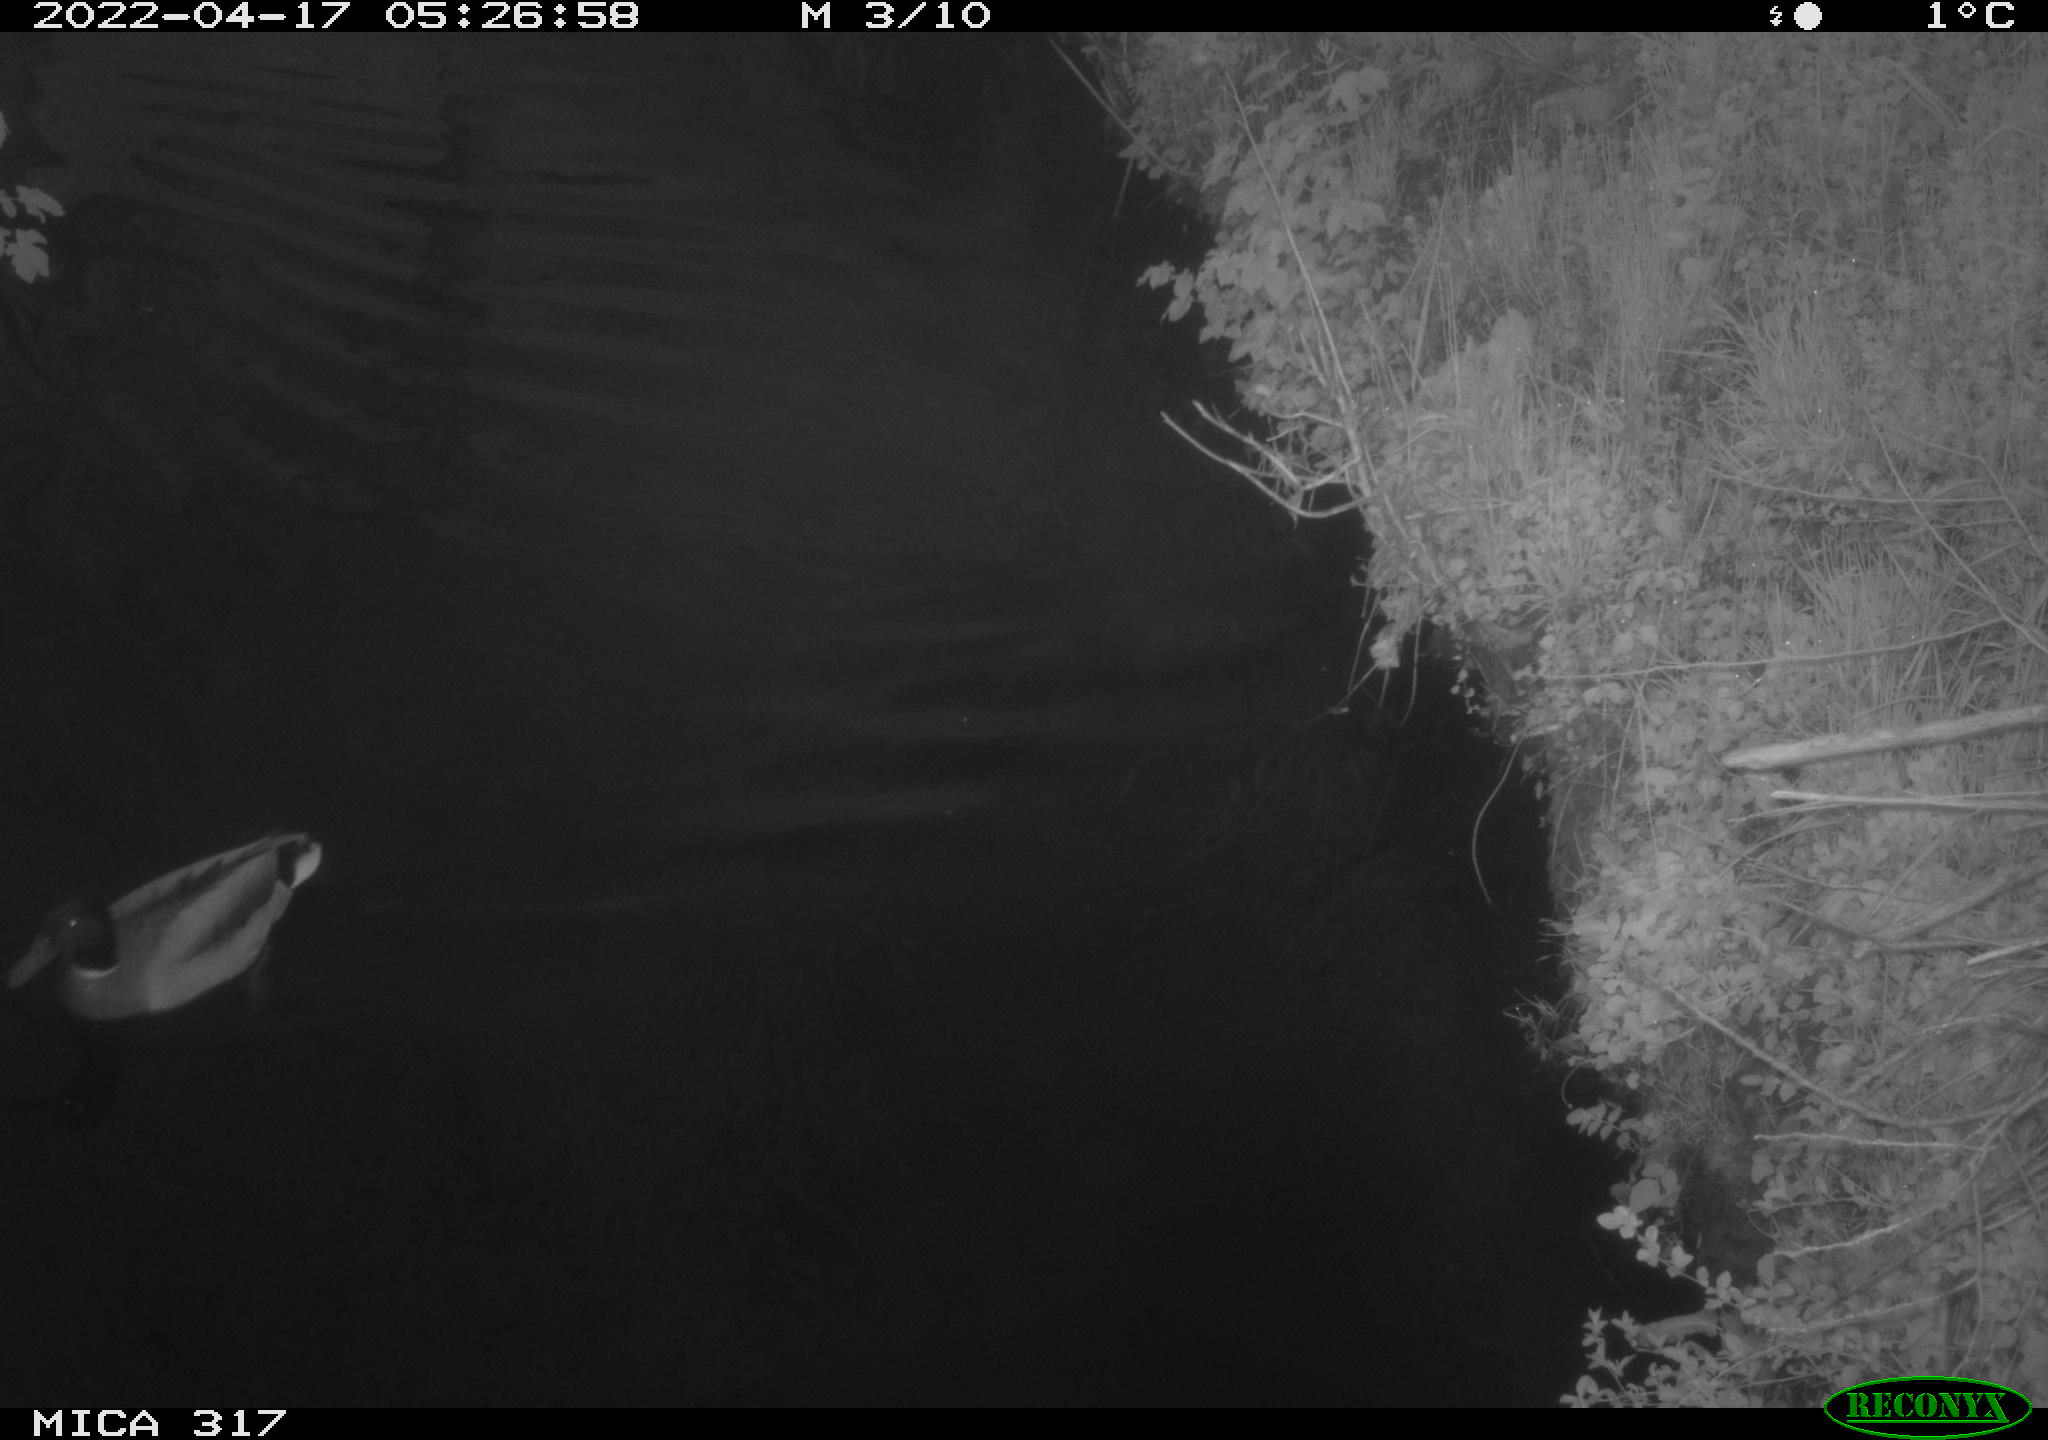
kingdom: Animalia
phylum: Chordata
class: Aves
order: Anseriformes
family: Anatidae
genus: Anas
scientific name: Anas platyrhynchos
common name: Mallard
